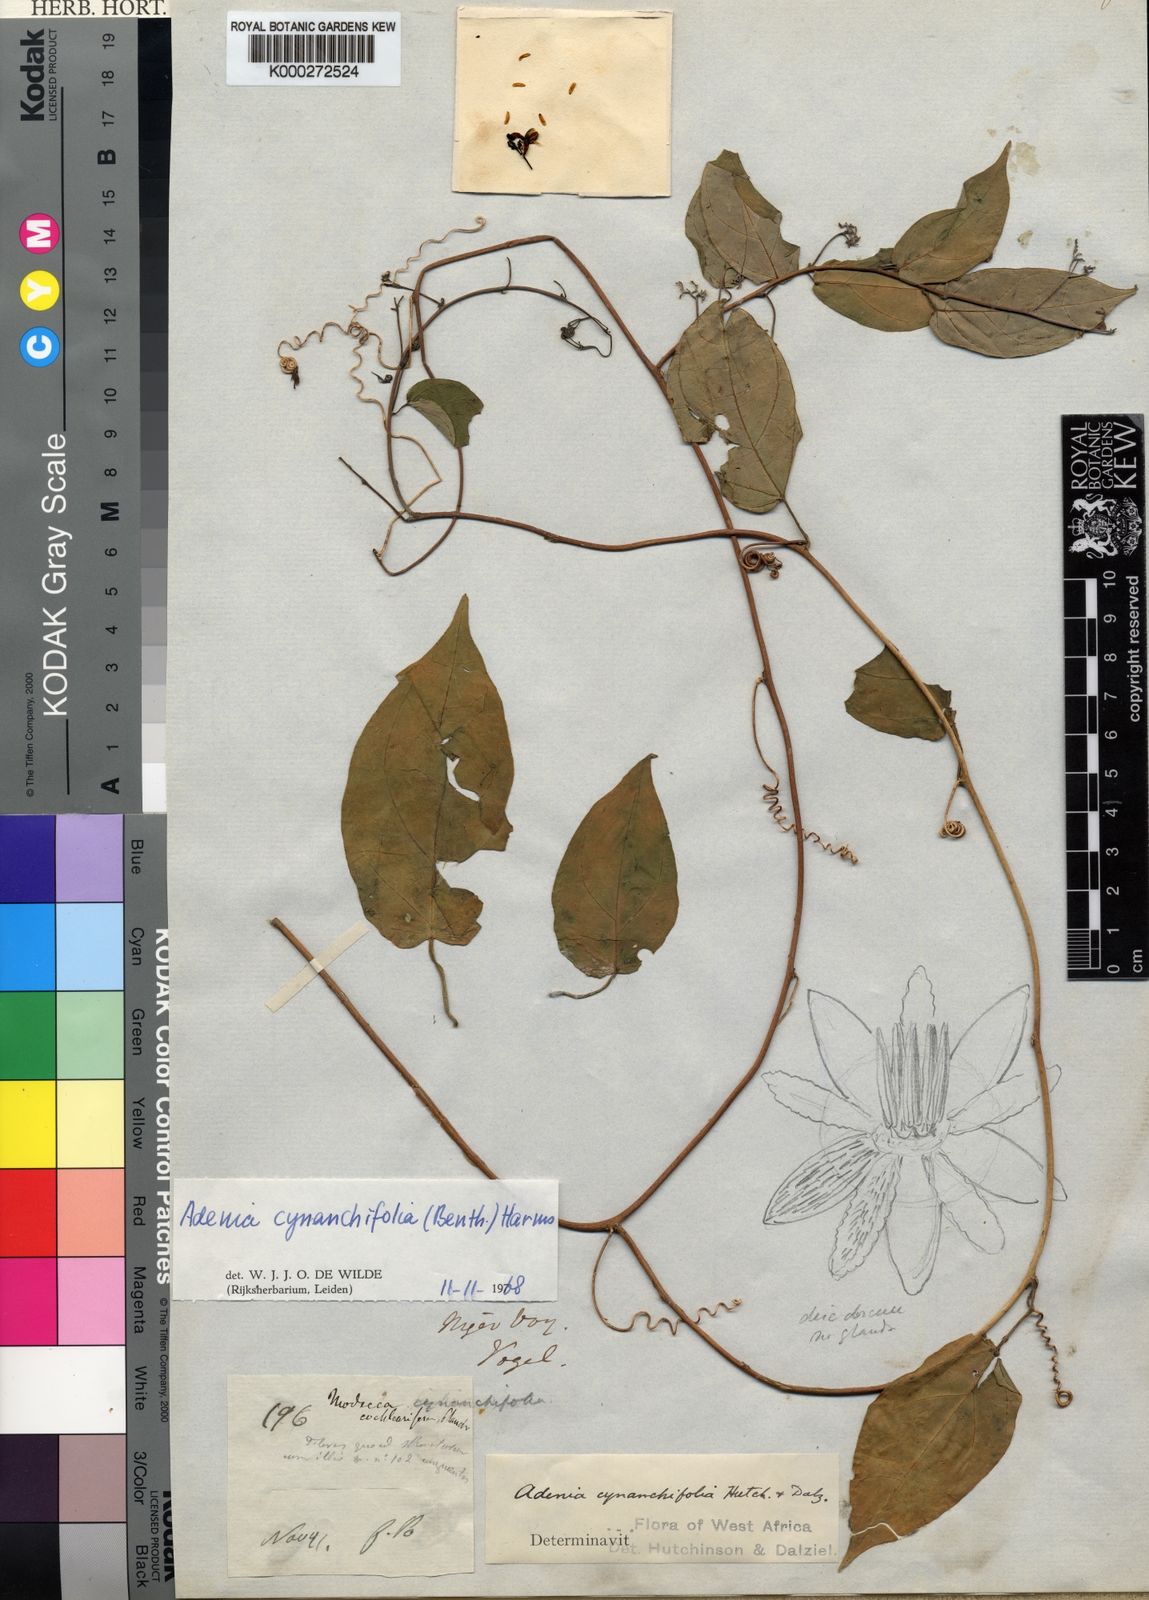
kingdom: Plantae
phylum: Tracheophyta
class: Magnoliopsida
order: Malpighiales
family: Passifloraceae
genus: Adenia
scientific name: Adenia cynanchifolia
